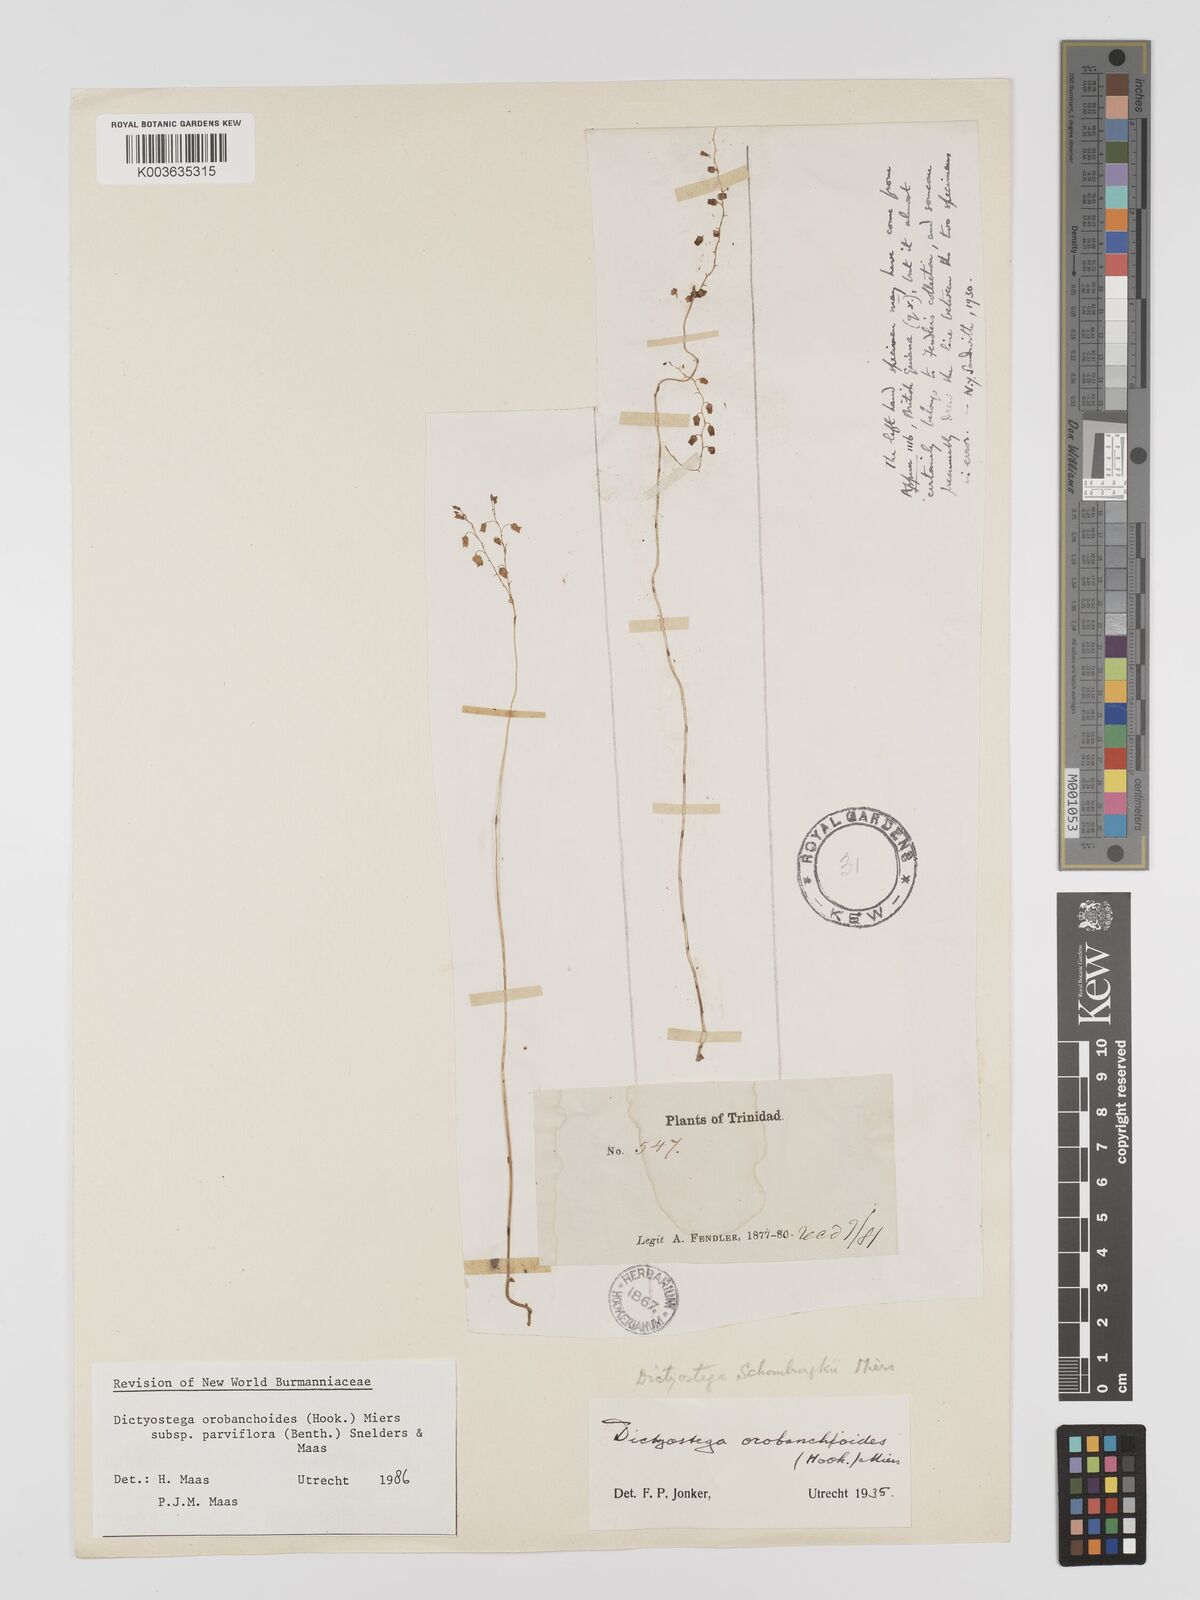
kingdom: Plantae
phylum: Tracheophyta
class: Liliopsida
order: Dioscoreales
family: Burmanniaceae
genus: Dictyostega
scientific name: Dictyostega orobanchoides
